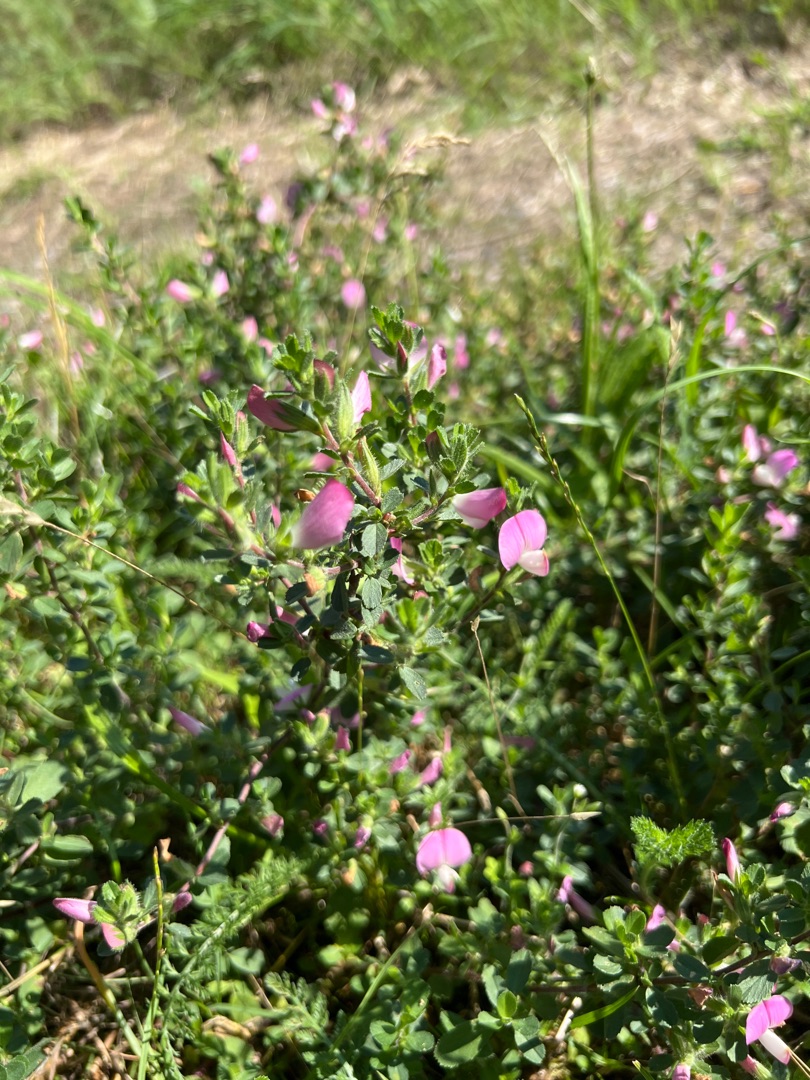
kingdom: Plantae
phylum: Tracheophyta
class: Magnoliopsida
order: Fabales
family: Fabaceae
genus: Ononis
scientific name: Ononis spinosa
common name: Mark-krageklo
